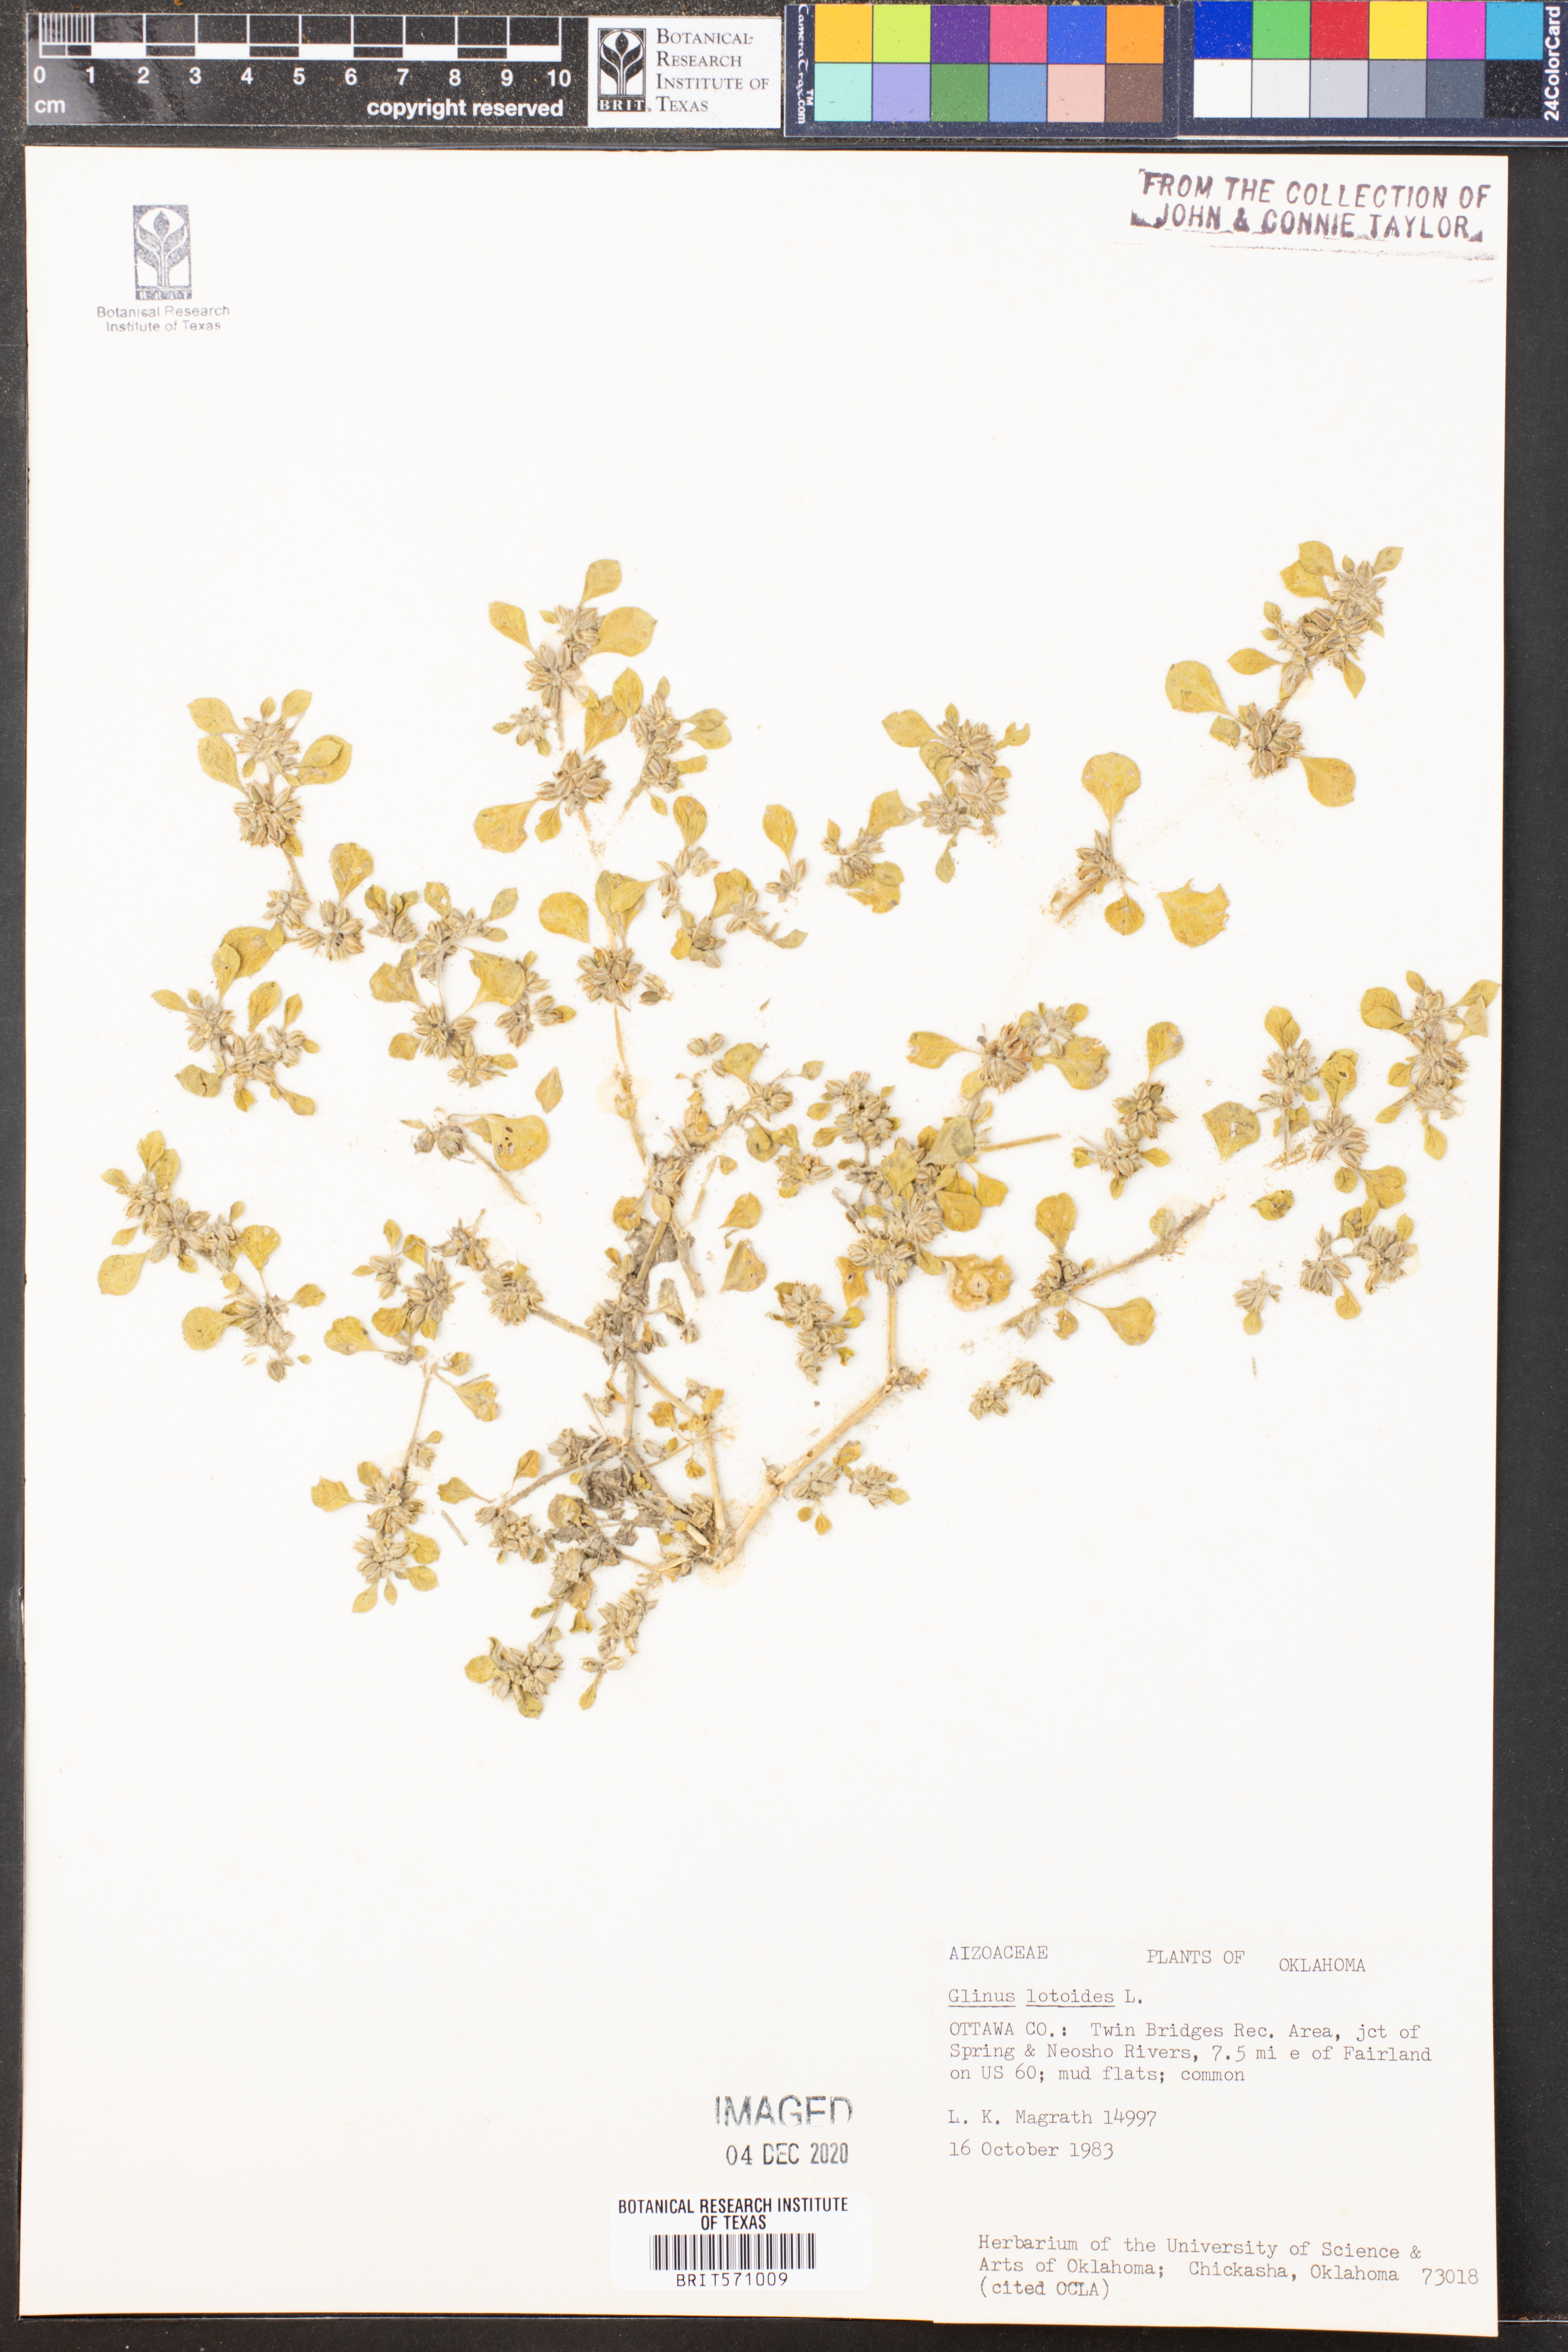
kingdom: Plantae
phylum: Tracheophyta
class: Magnoliopsida
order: Caryophyllales
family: Molluginaceae
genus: Glinus
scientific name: Glinus lotoides
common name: Lotus sweetjuice
